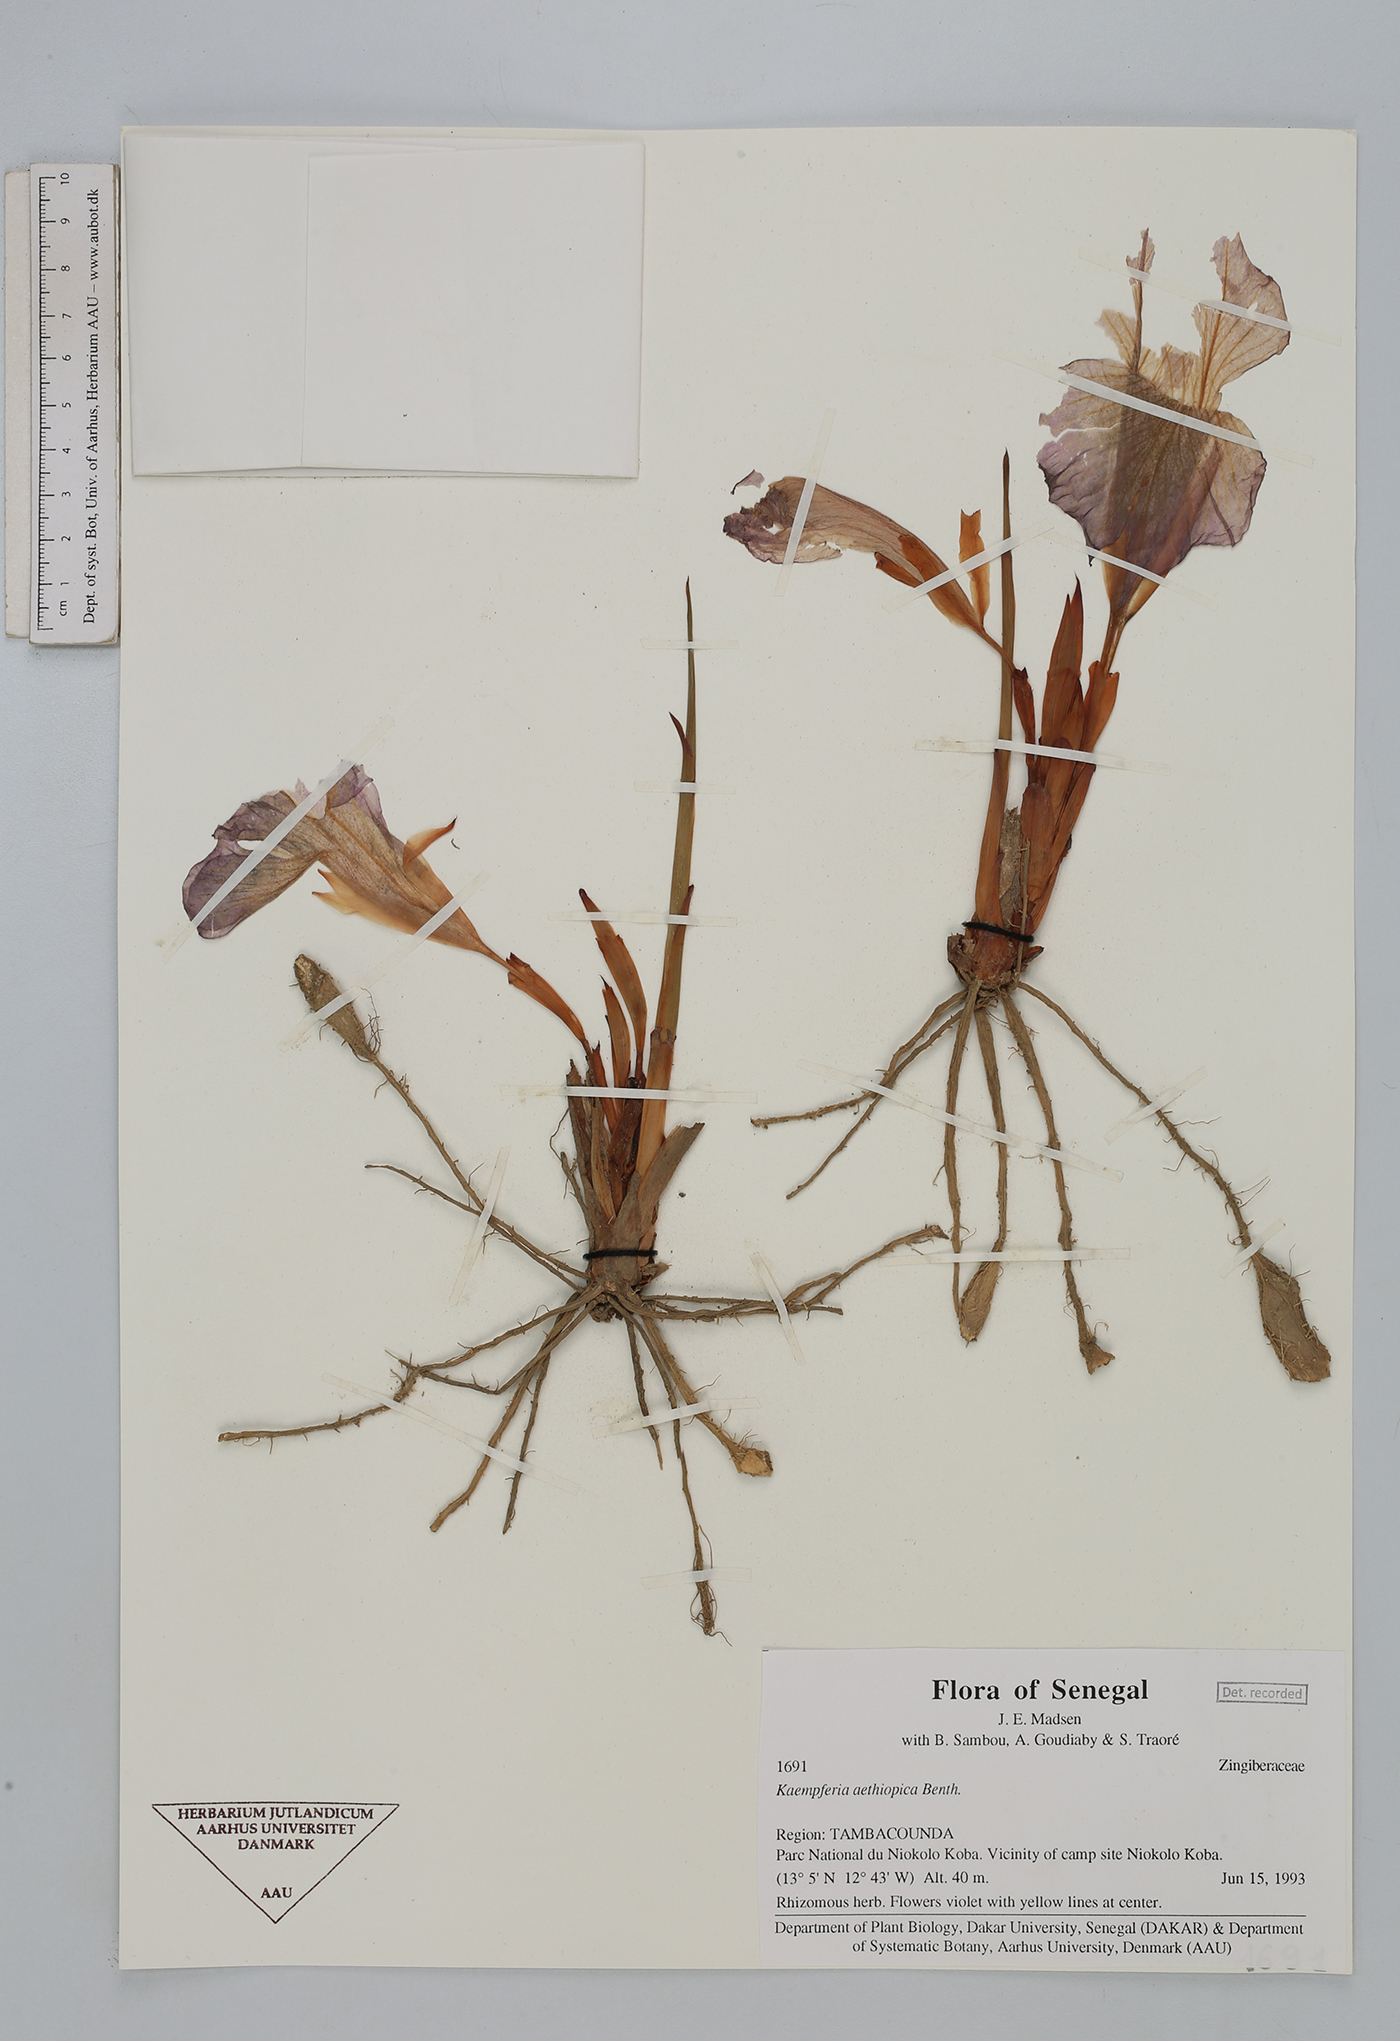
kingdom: Plantae
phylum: Tracheophyta
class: Liliopsida
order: Zingiberales
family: Zingiberaceae
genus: Siphonochilus
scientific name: Siphonochilus aethiopicus
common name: African-ginger
